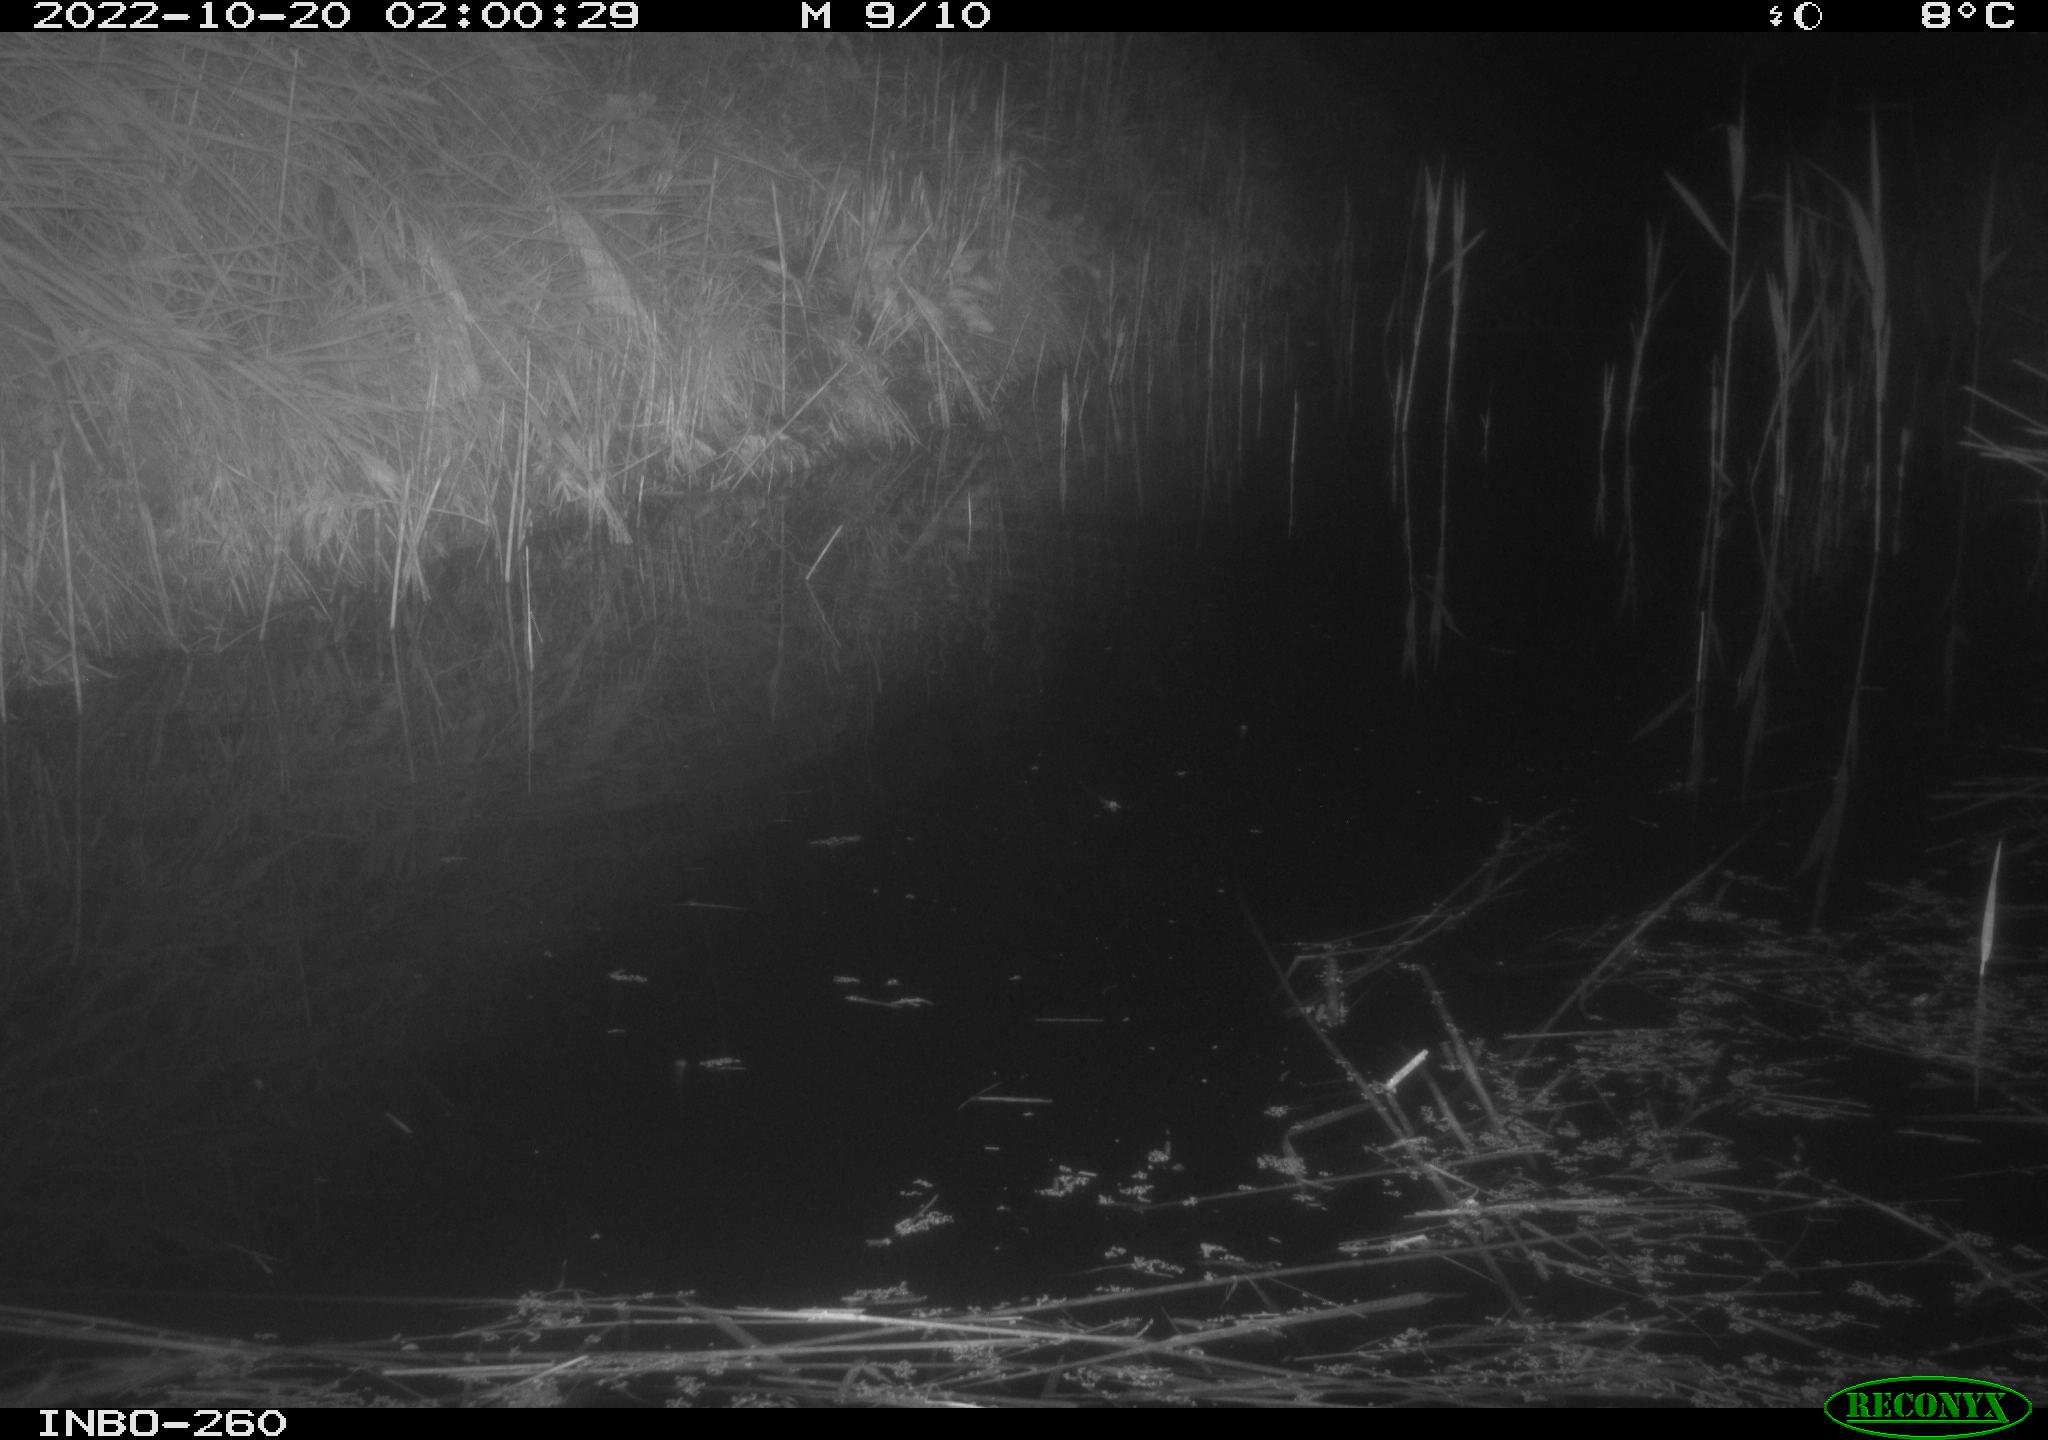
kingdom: Animalia
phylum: Chordata
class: Mammalia
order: Rodentia
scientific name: Rodentia
